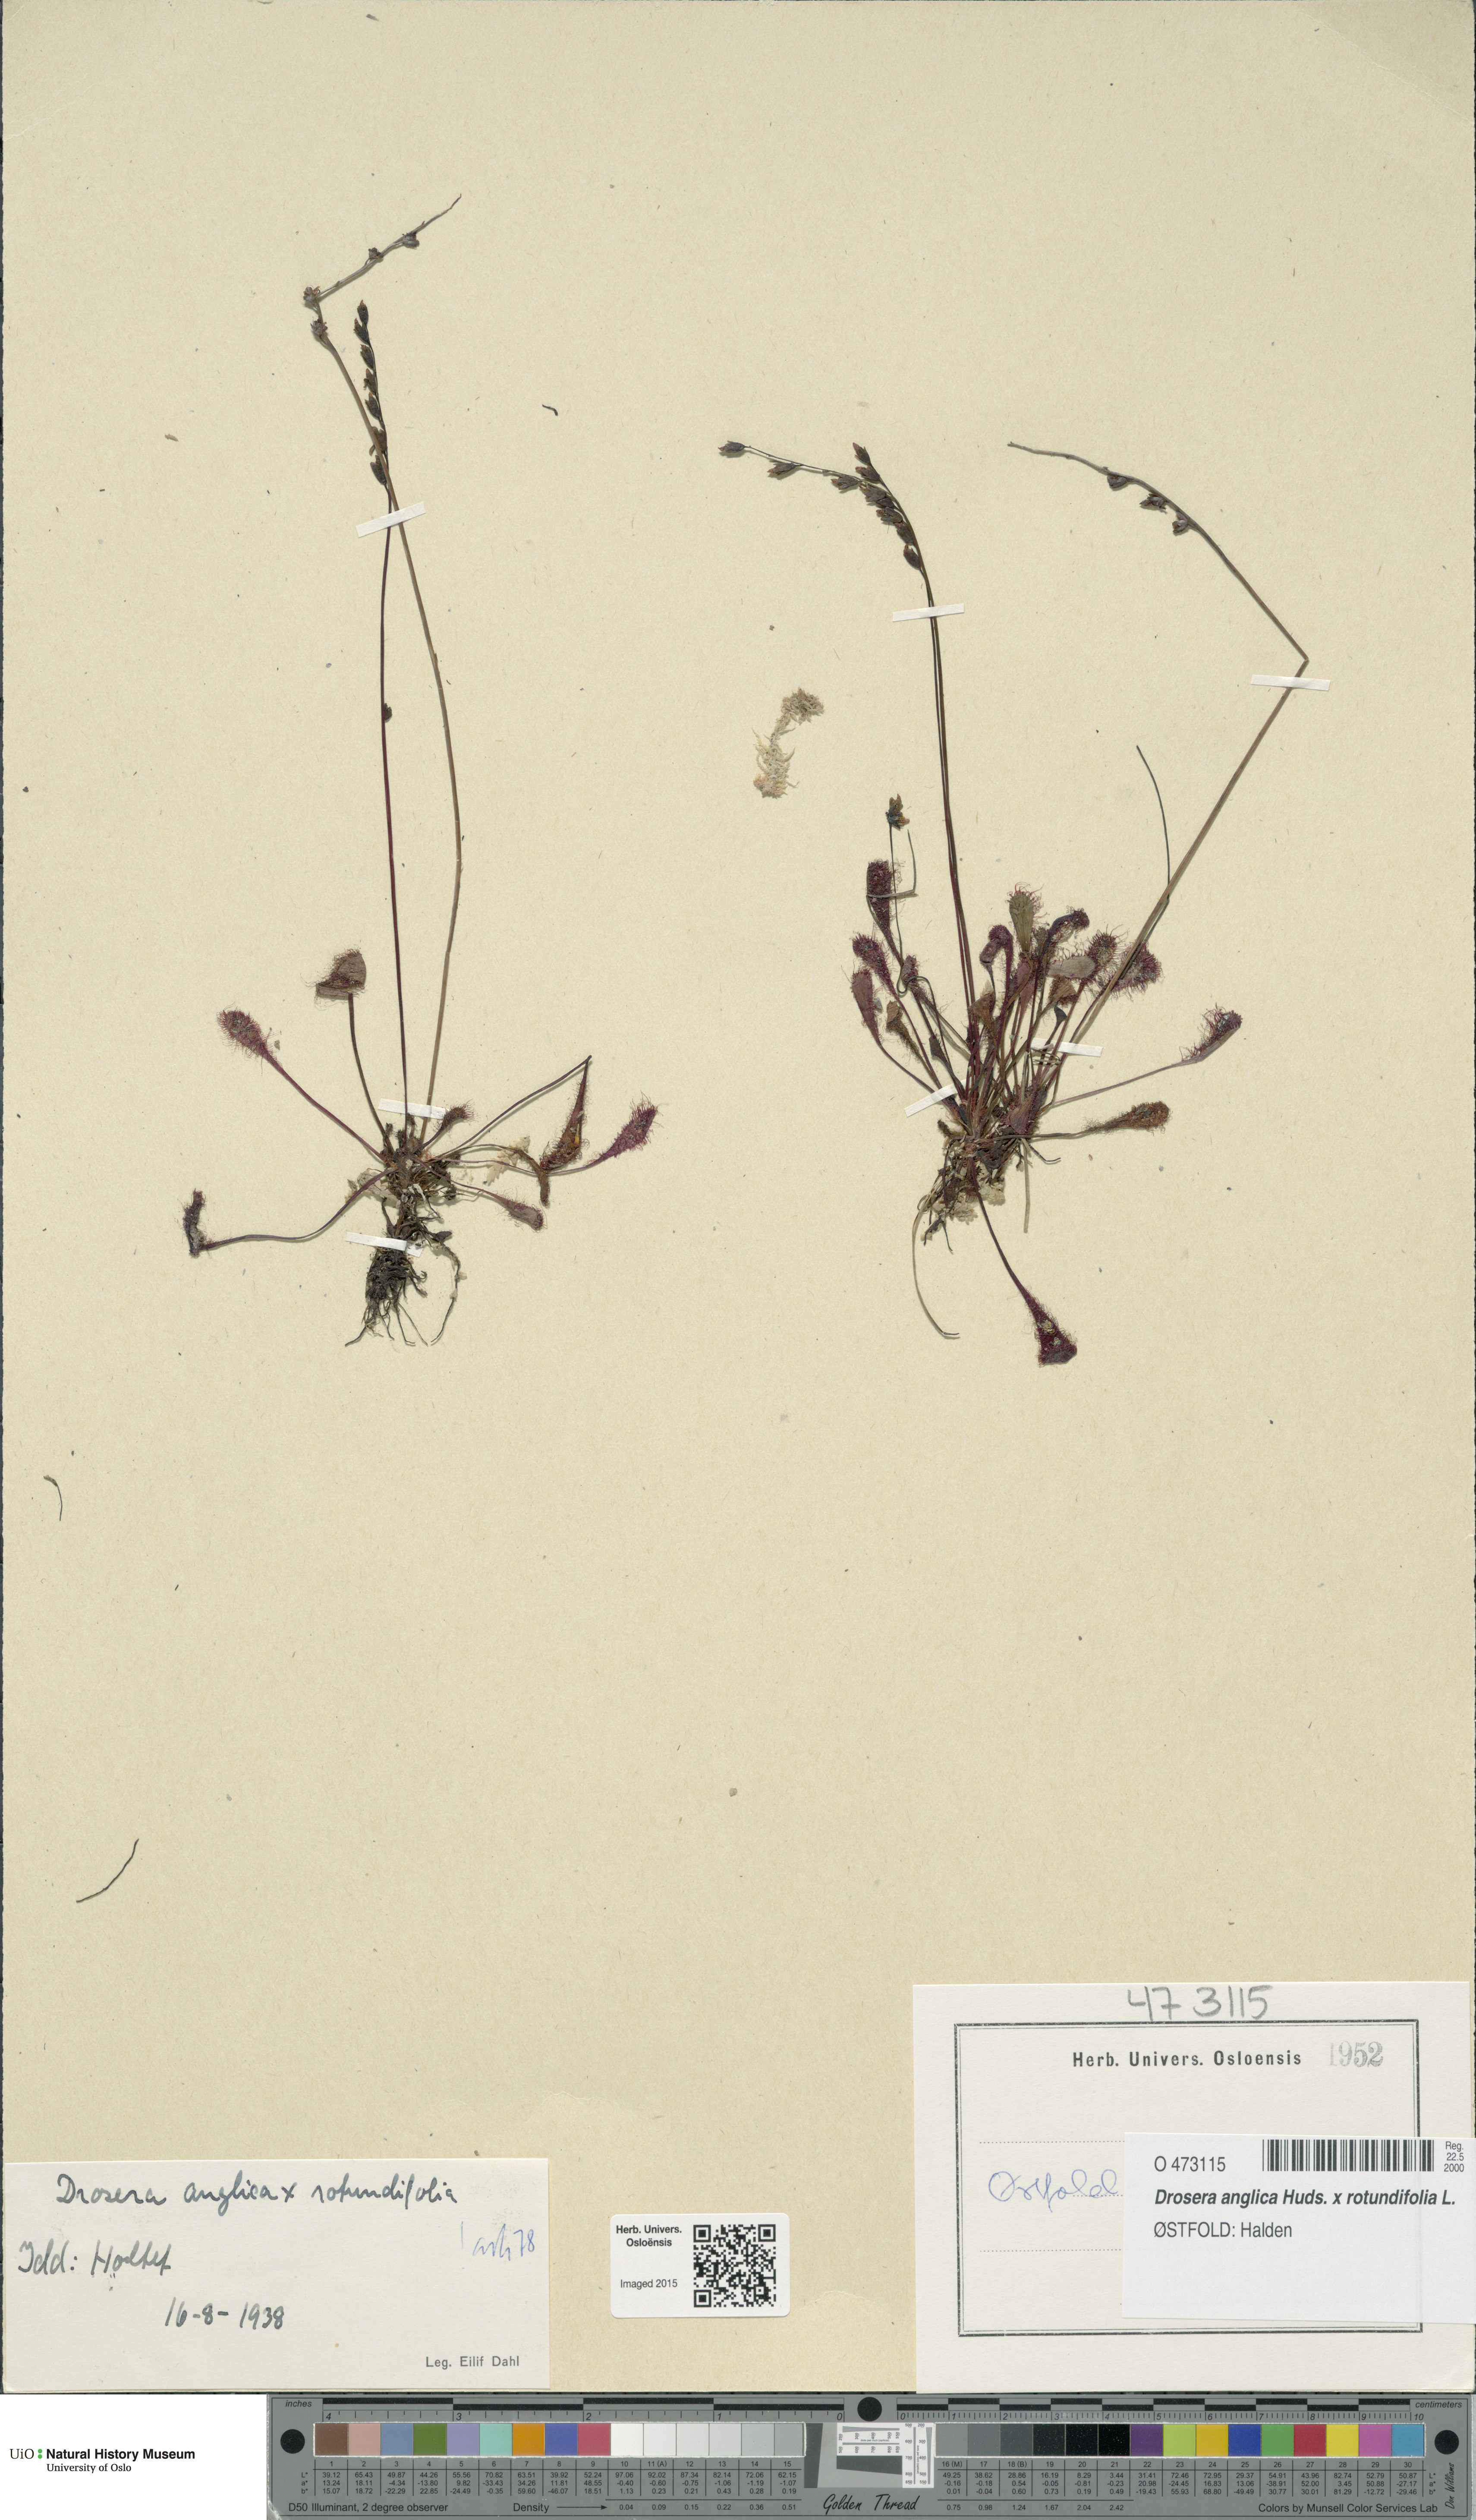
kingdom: Plantae
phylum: Tracheophyta
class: Magnoliopsida
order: Caryophyllales
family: Droseraceae
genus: Drosera
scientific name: Drosera
